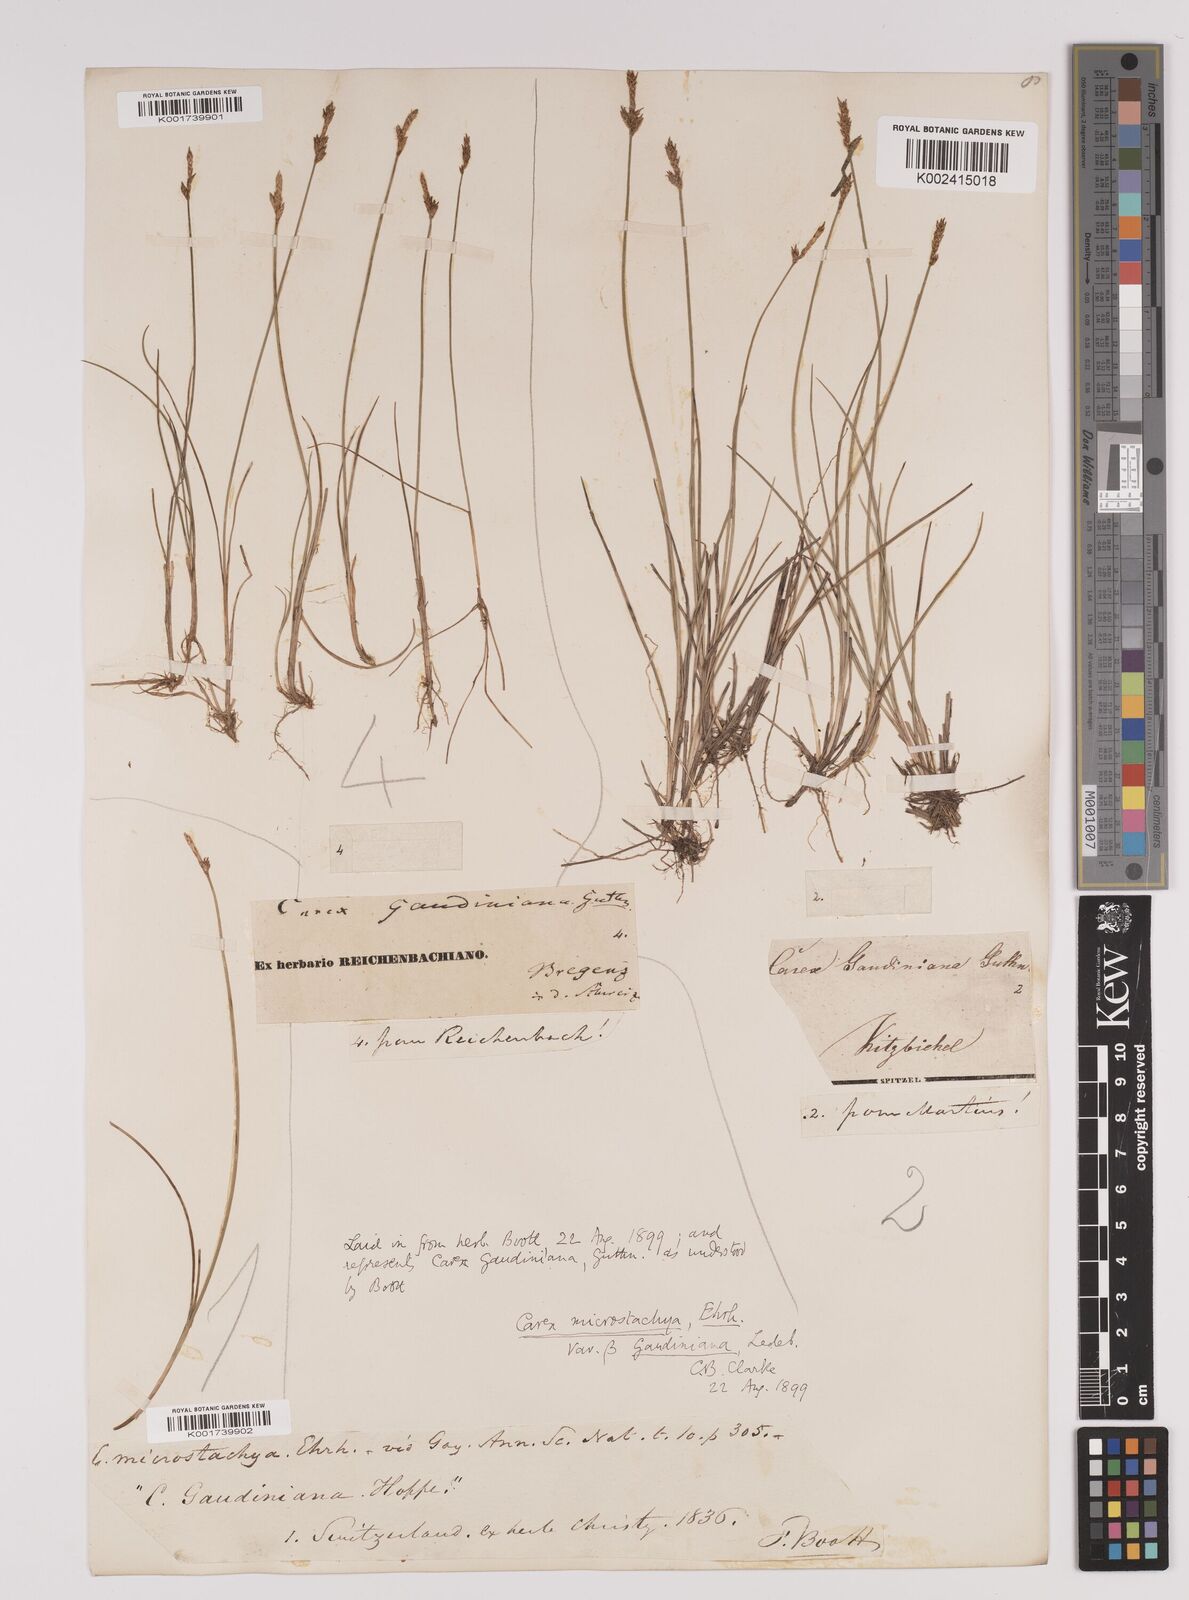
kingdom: Plantae
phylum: Tracheophyta
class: Liliopsida
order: Poales
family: Cyperaceae
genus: Carex
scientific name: Carex dioica
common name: Dioecious sedge
